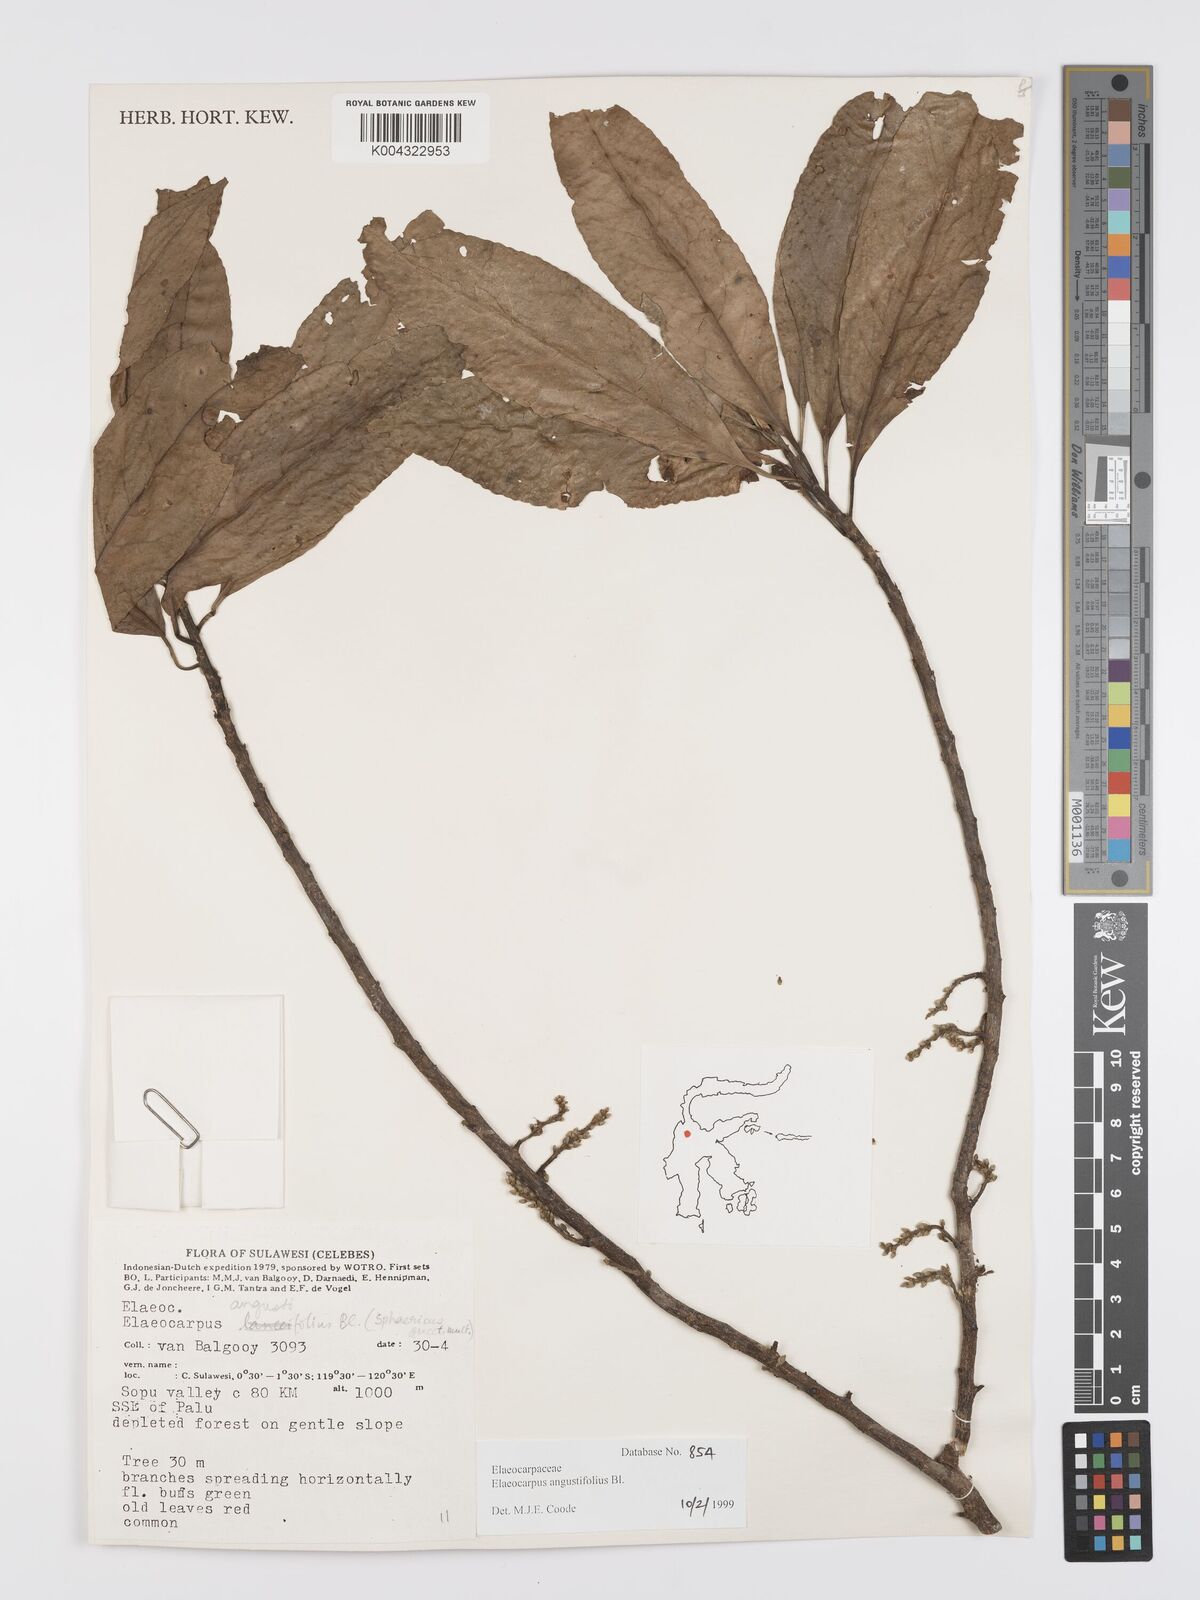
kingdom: Plantae
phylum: Tracheophyta
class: Magnoliopsida
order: Oxalidales
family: Elaeocarpaceae
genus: Elaeocarpus
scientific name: Elaeocarpus sphaericus
